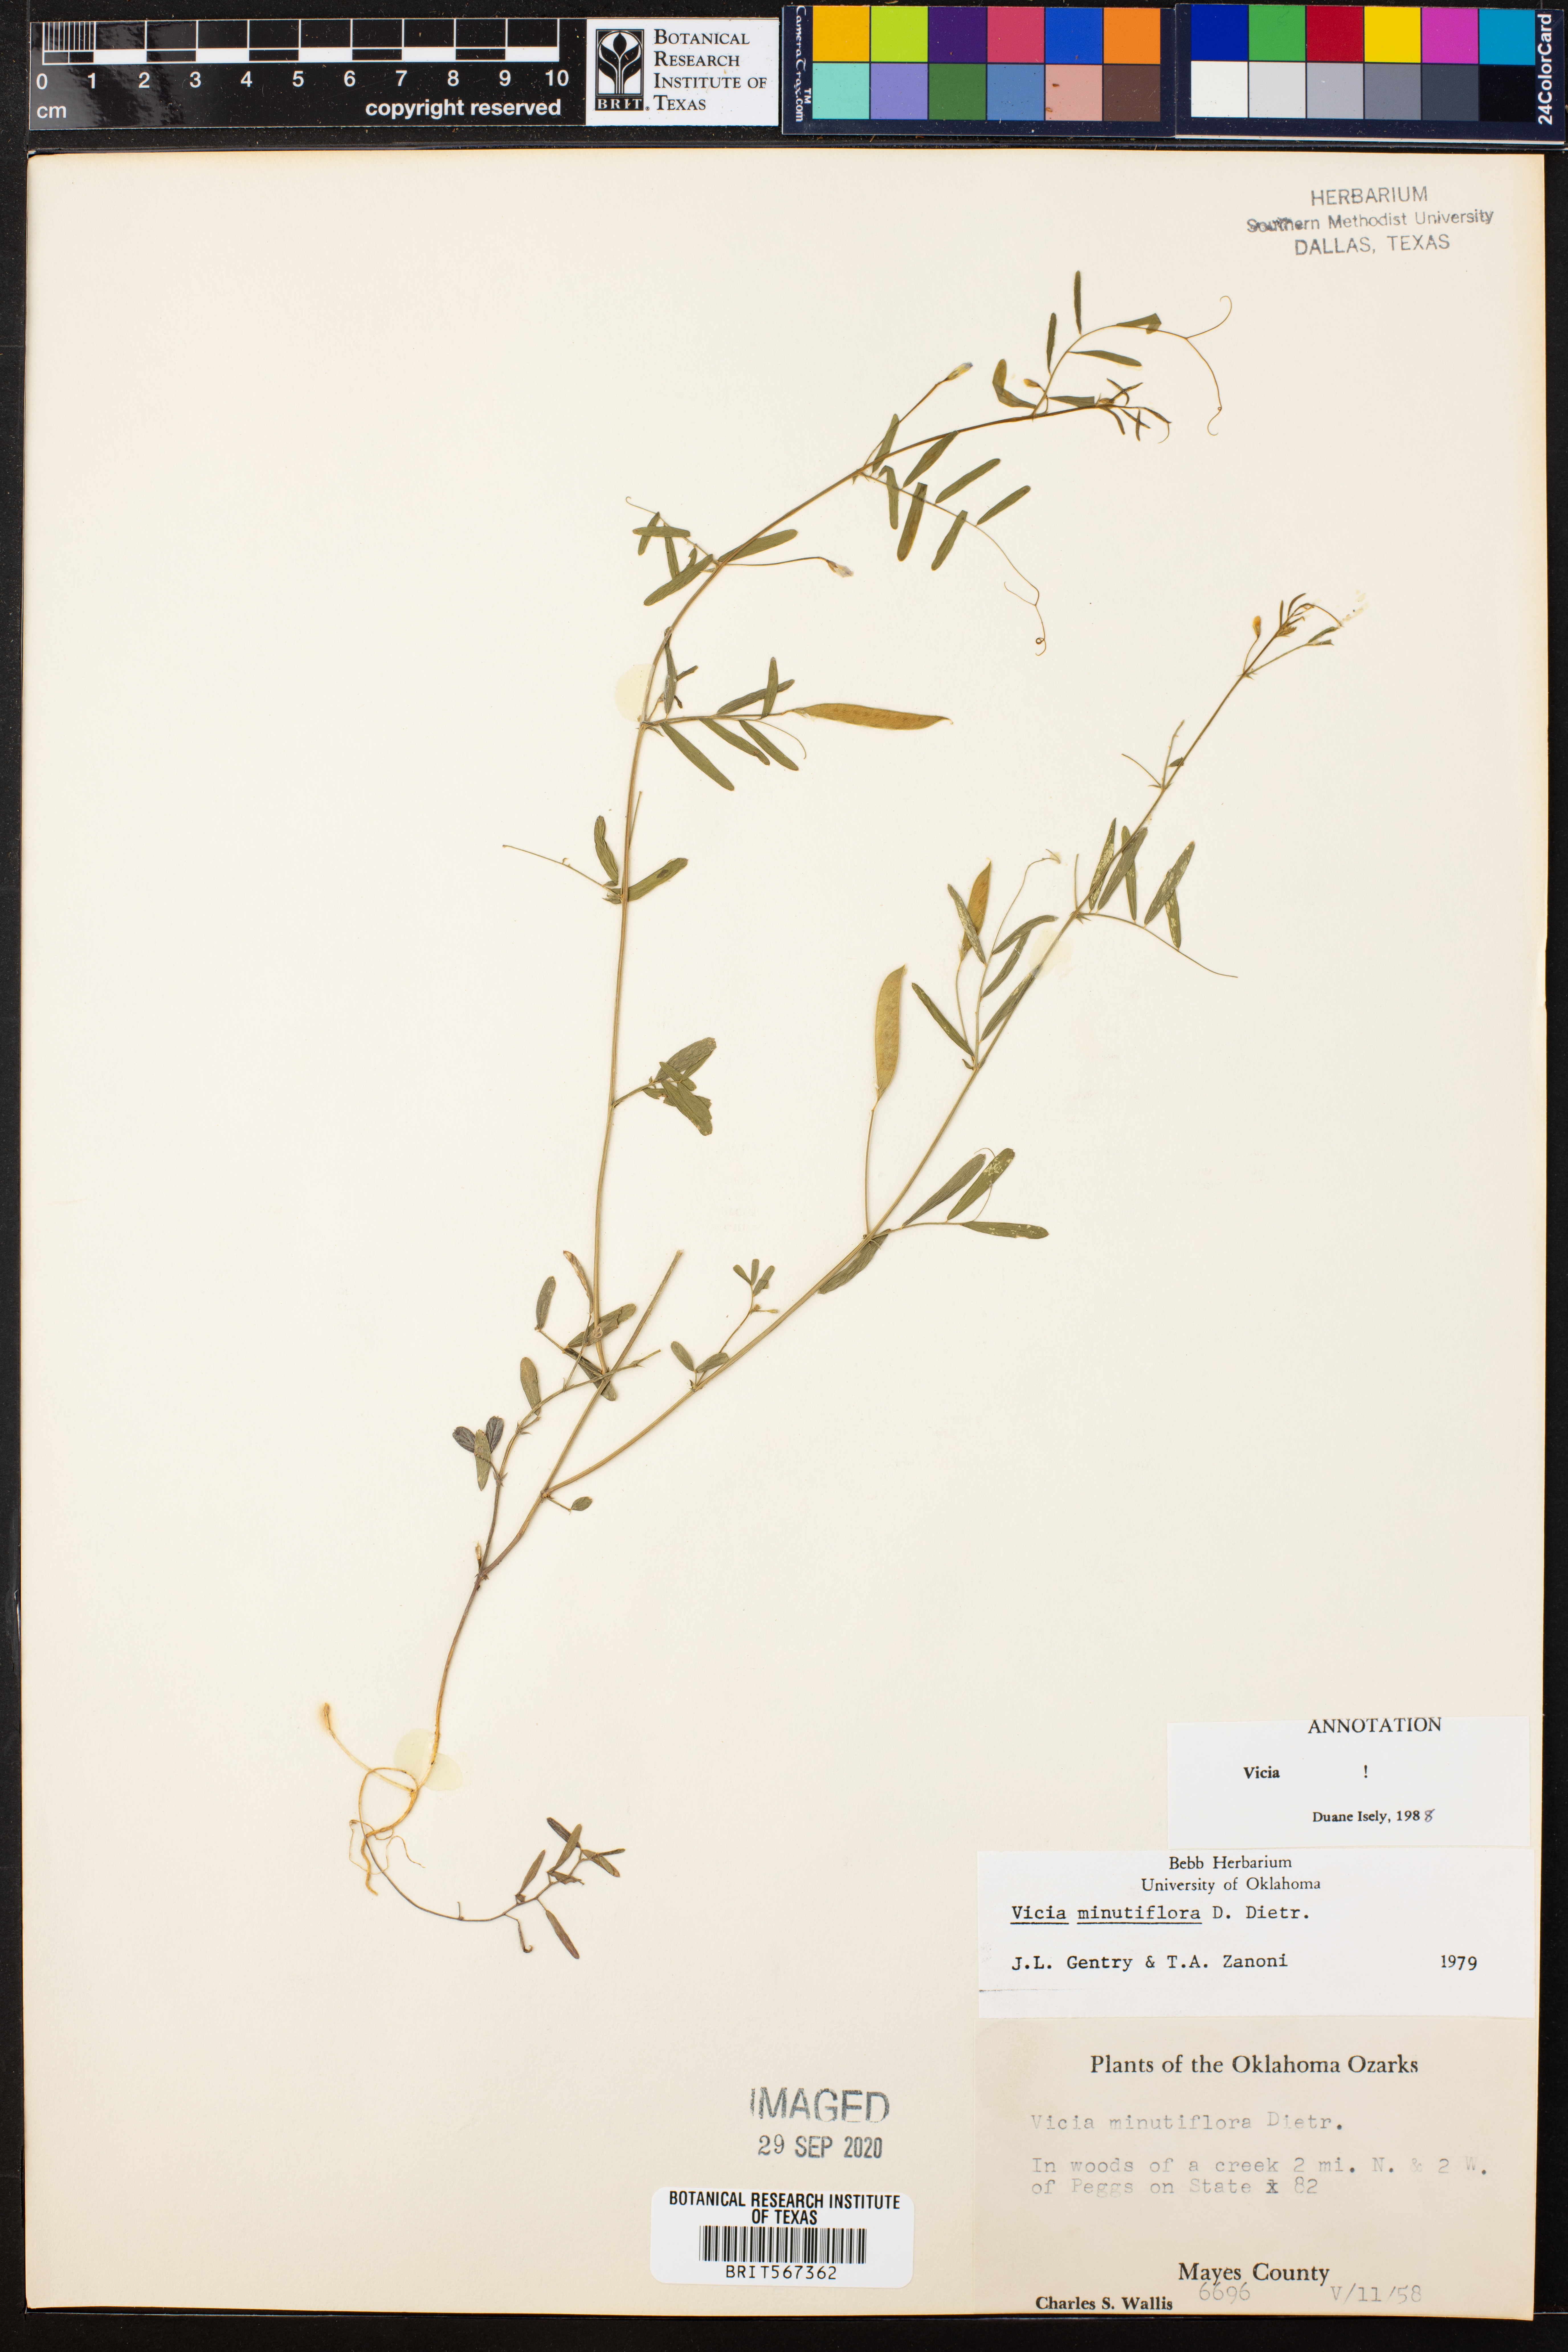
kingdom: Plantae
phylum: Tracheophyta
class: Magnoliopsida
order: Fabales
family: Fabaceae
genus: Vicia
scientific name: Vicia minutiflora
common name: Pygmy-flower vetch
